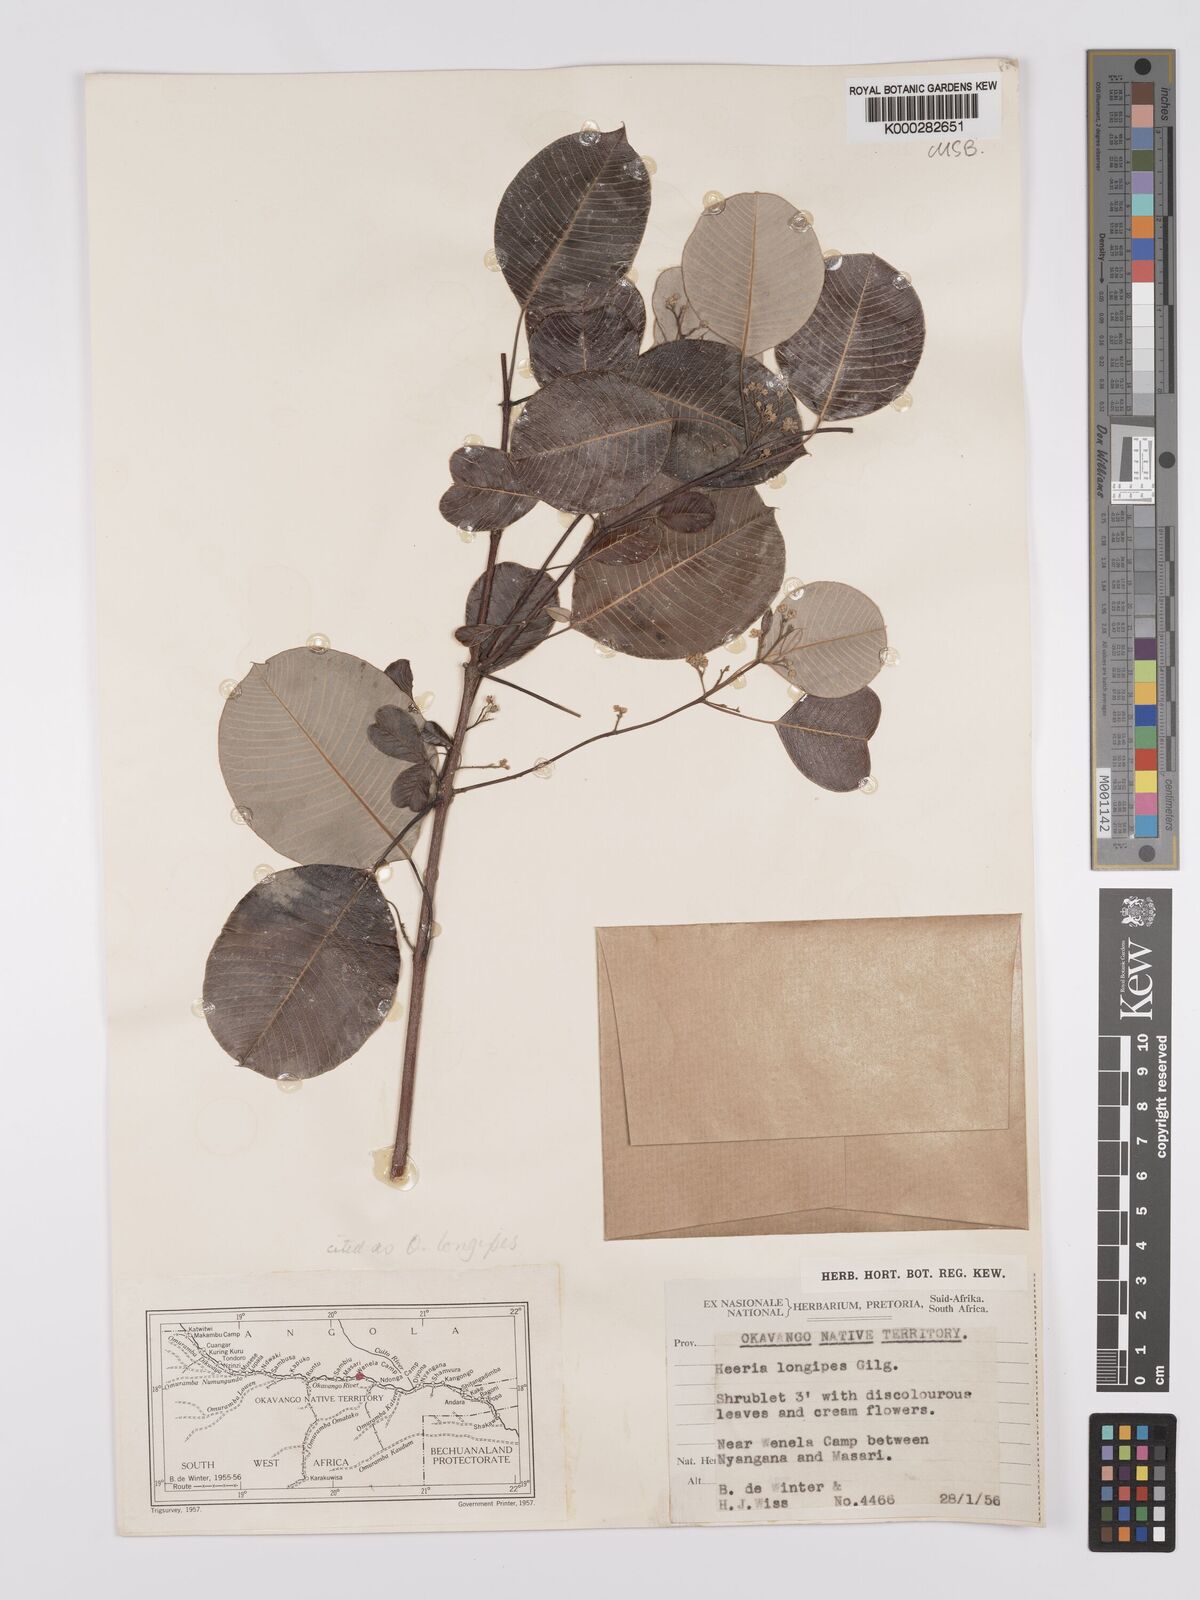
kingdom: Plantae
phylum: Tracheophyta
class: Magnoliopsida
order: Sapindales
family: Anacardiaceae
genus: Ozoroa
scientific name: Ozoroa longipes
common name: Round-leaved resin tree
